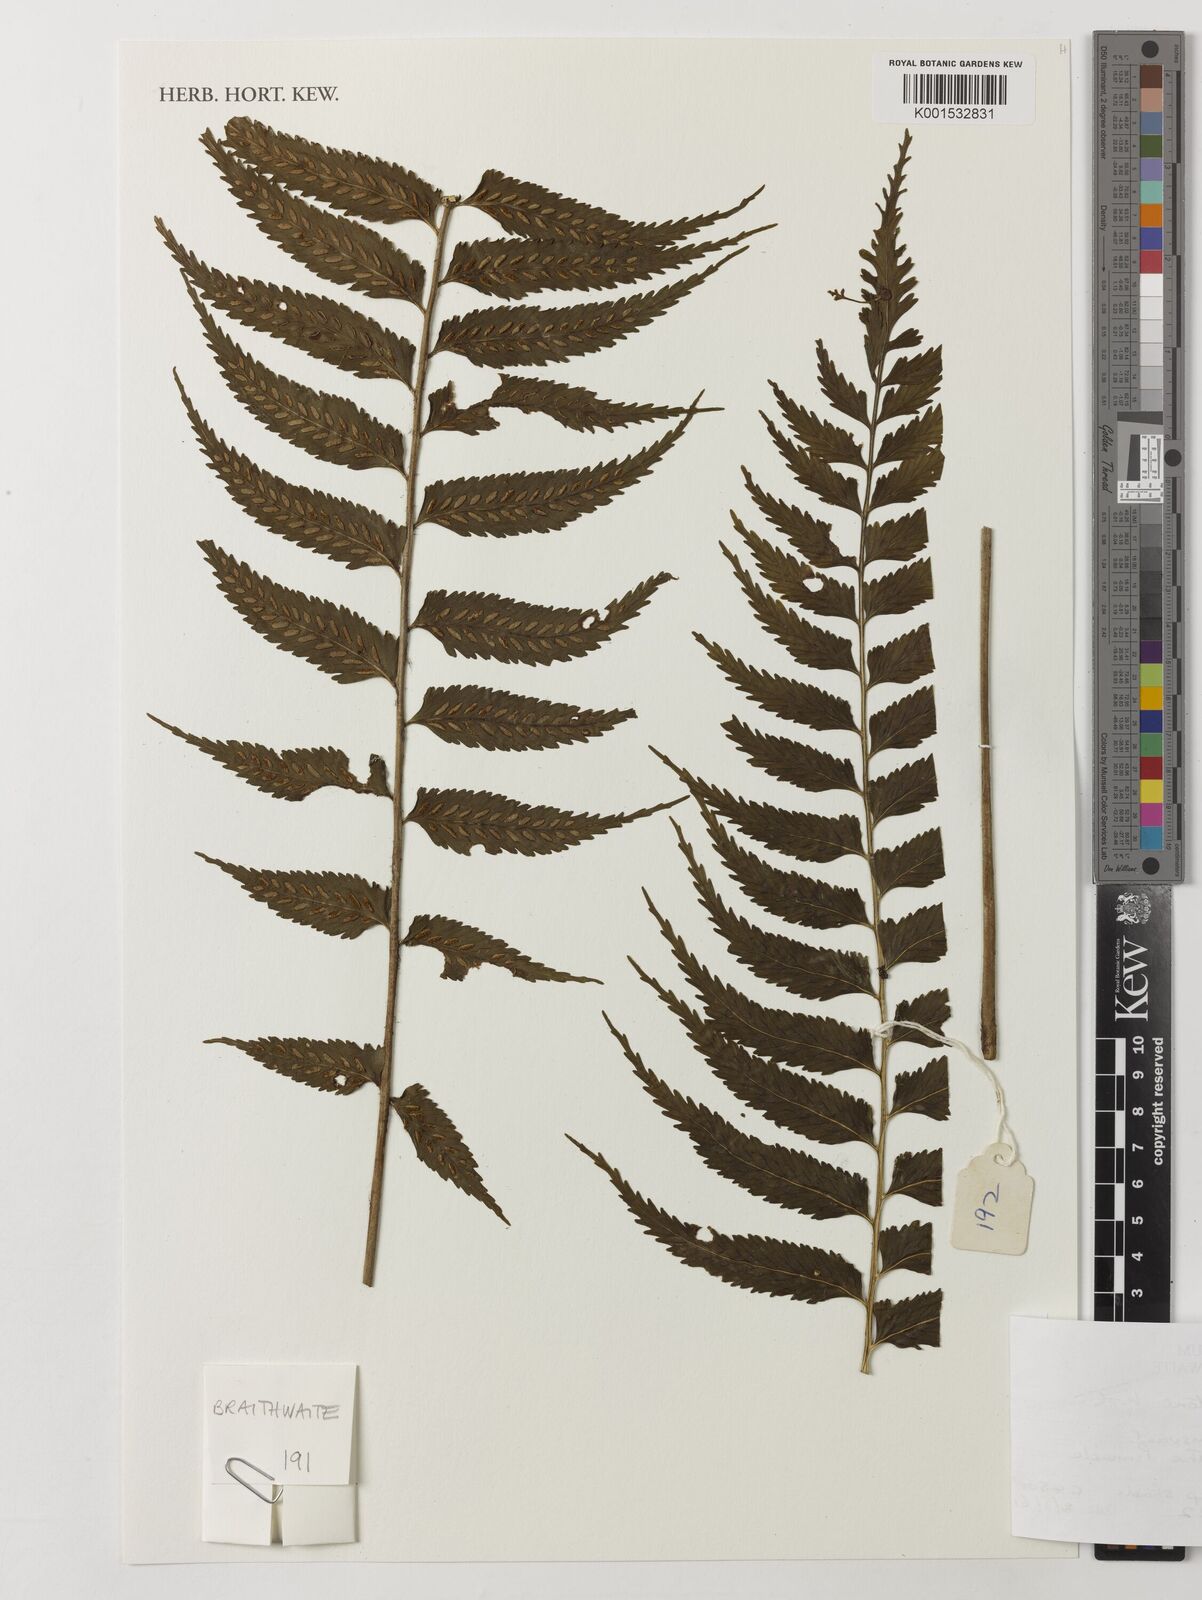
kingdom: Plantae
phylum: Tracheophyta
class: Polypodiopsida
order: Polypodiales
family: Aspleniaceae
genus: Asplenium
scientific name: Asplenium boltonii
